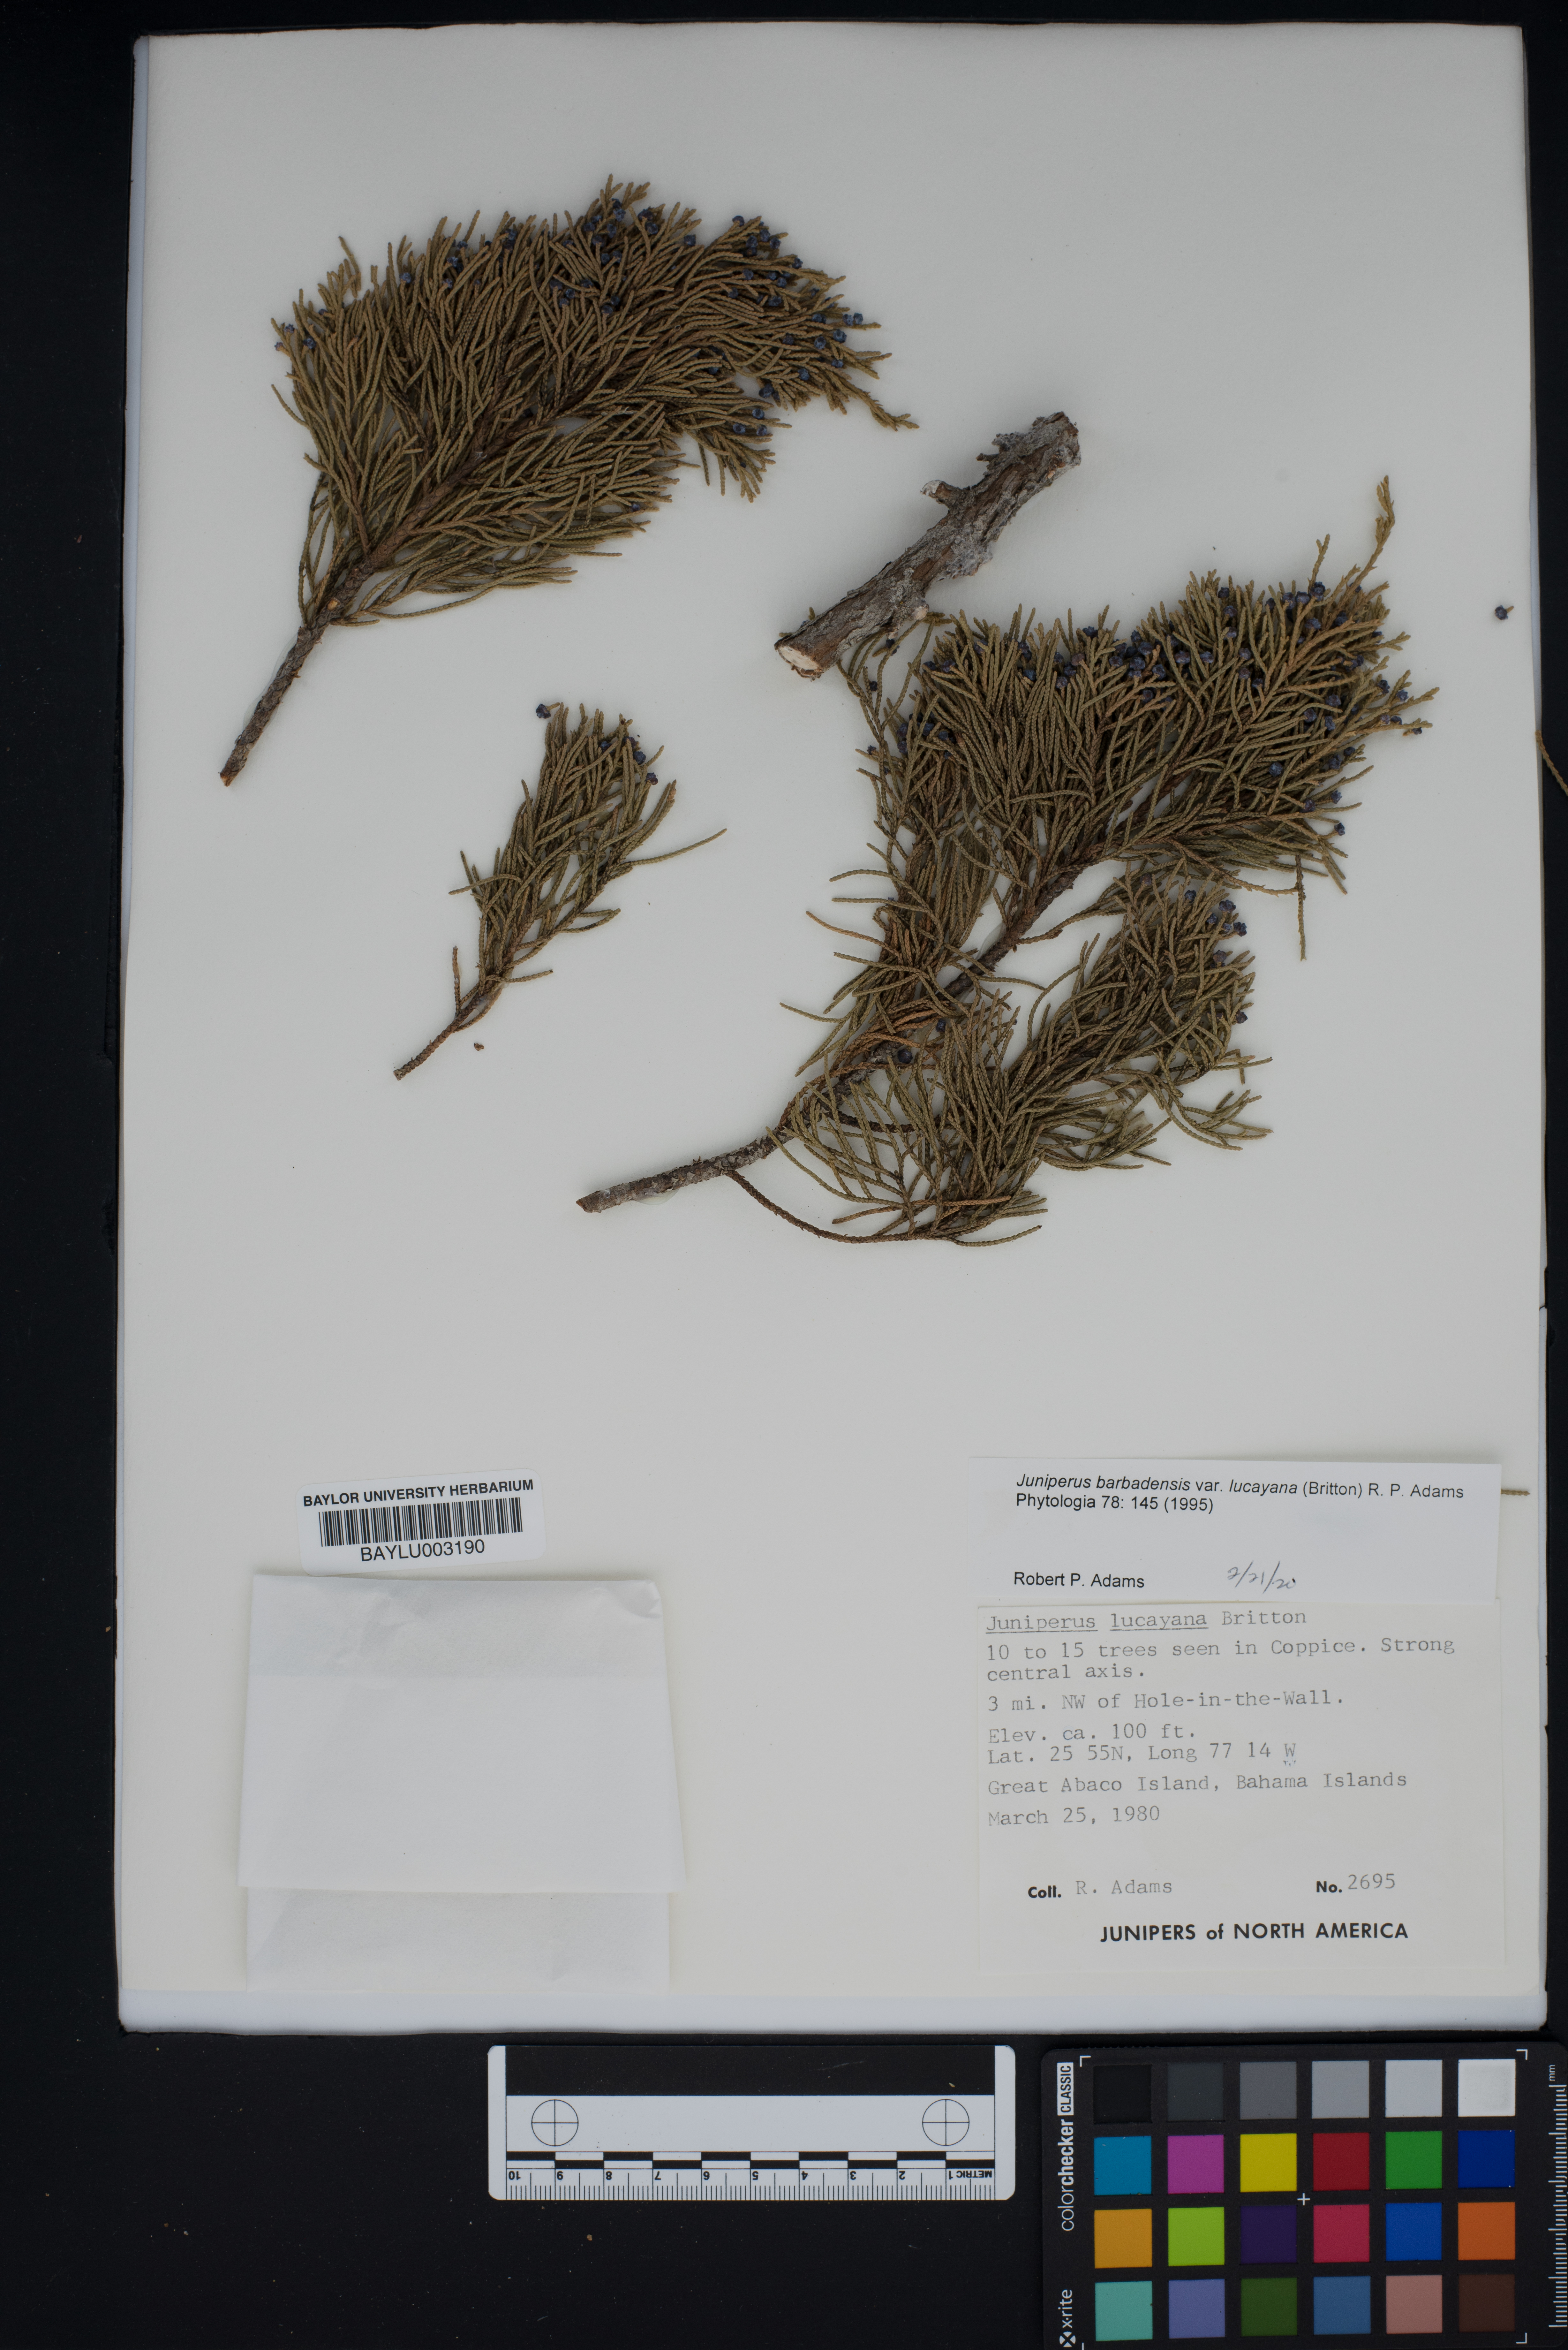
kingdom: Plantae
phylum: Tracheophyta
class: Pinopsida
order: Pinales
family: Cupressaceae
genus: Juniperus
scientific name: Juniperus barbadensis
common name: West indies juniper
